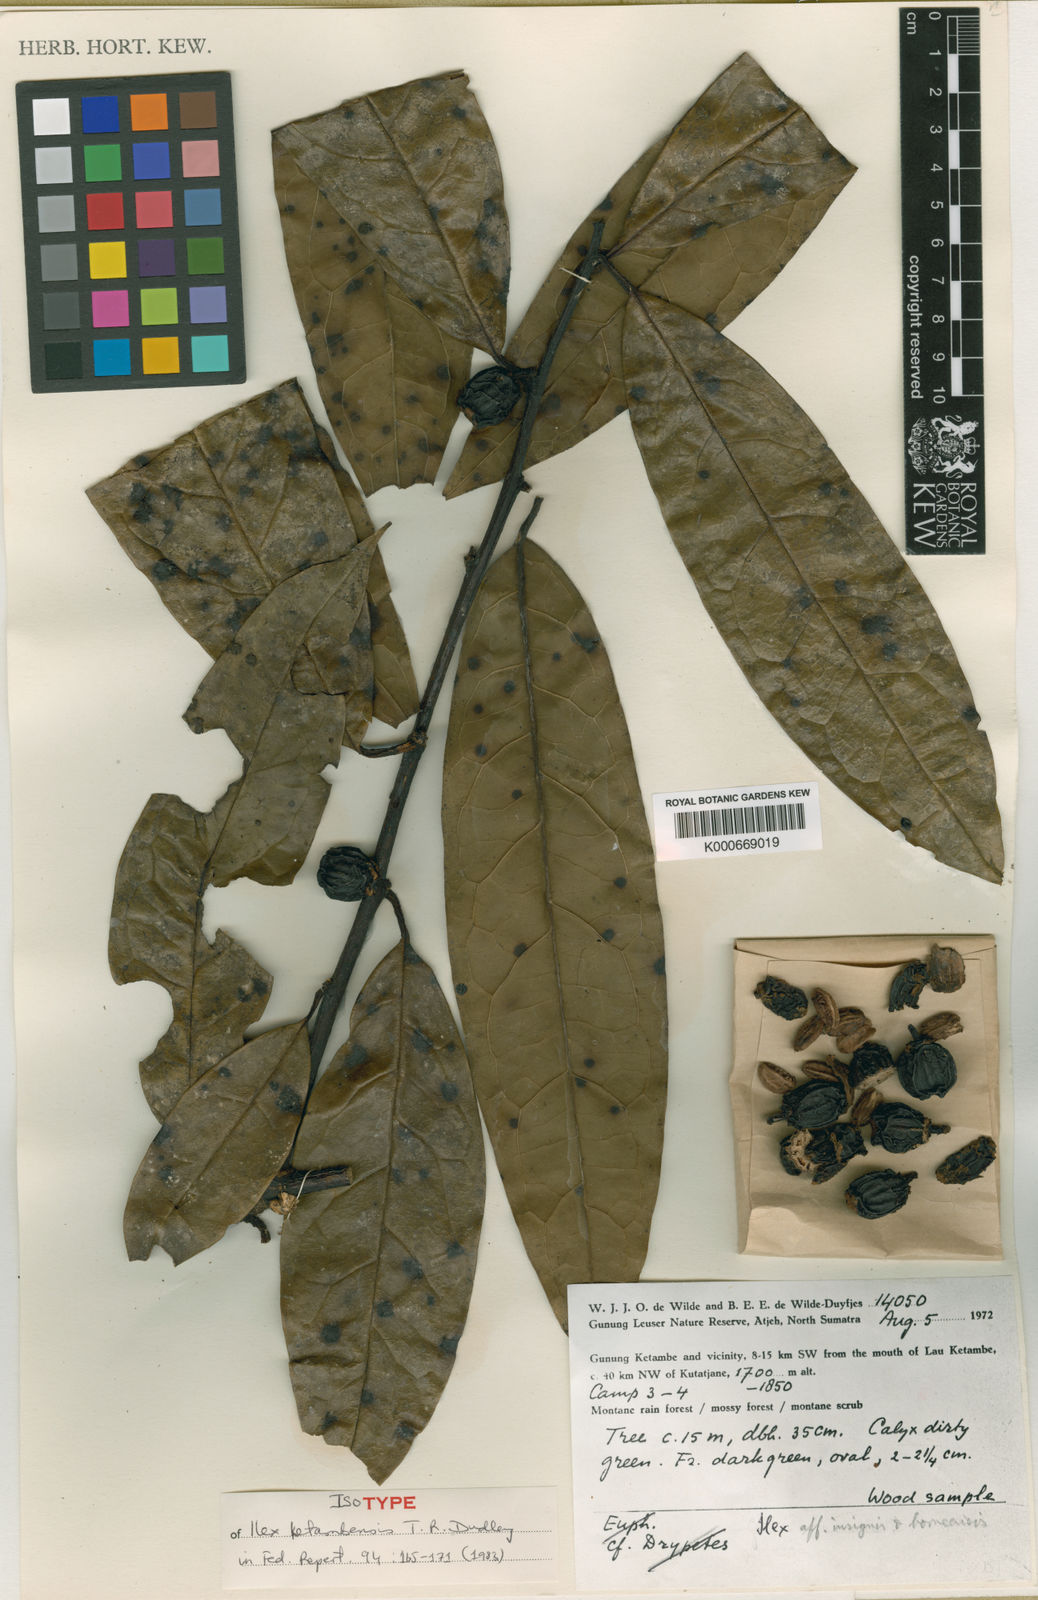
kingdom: Plantae
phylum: Tracheophyta
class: Magnoliopsida
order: Aquifoliales
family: Aquifoliaceae
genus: Ilex
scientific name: Ilex ketambensis
